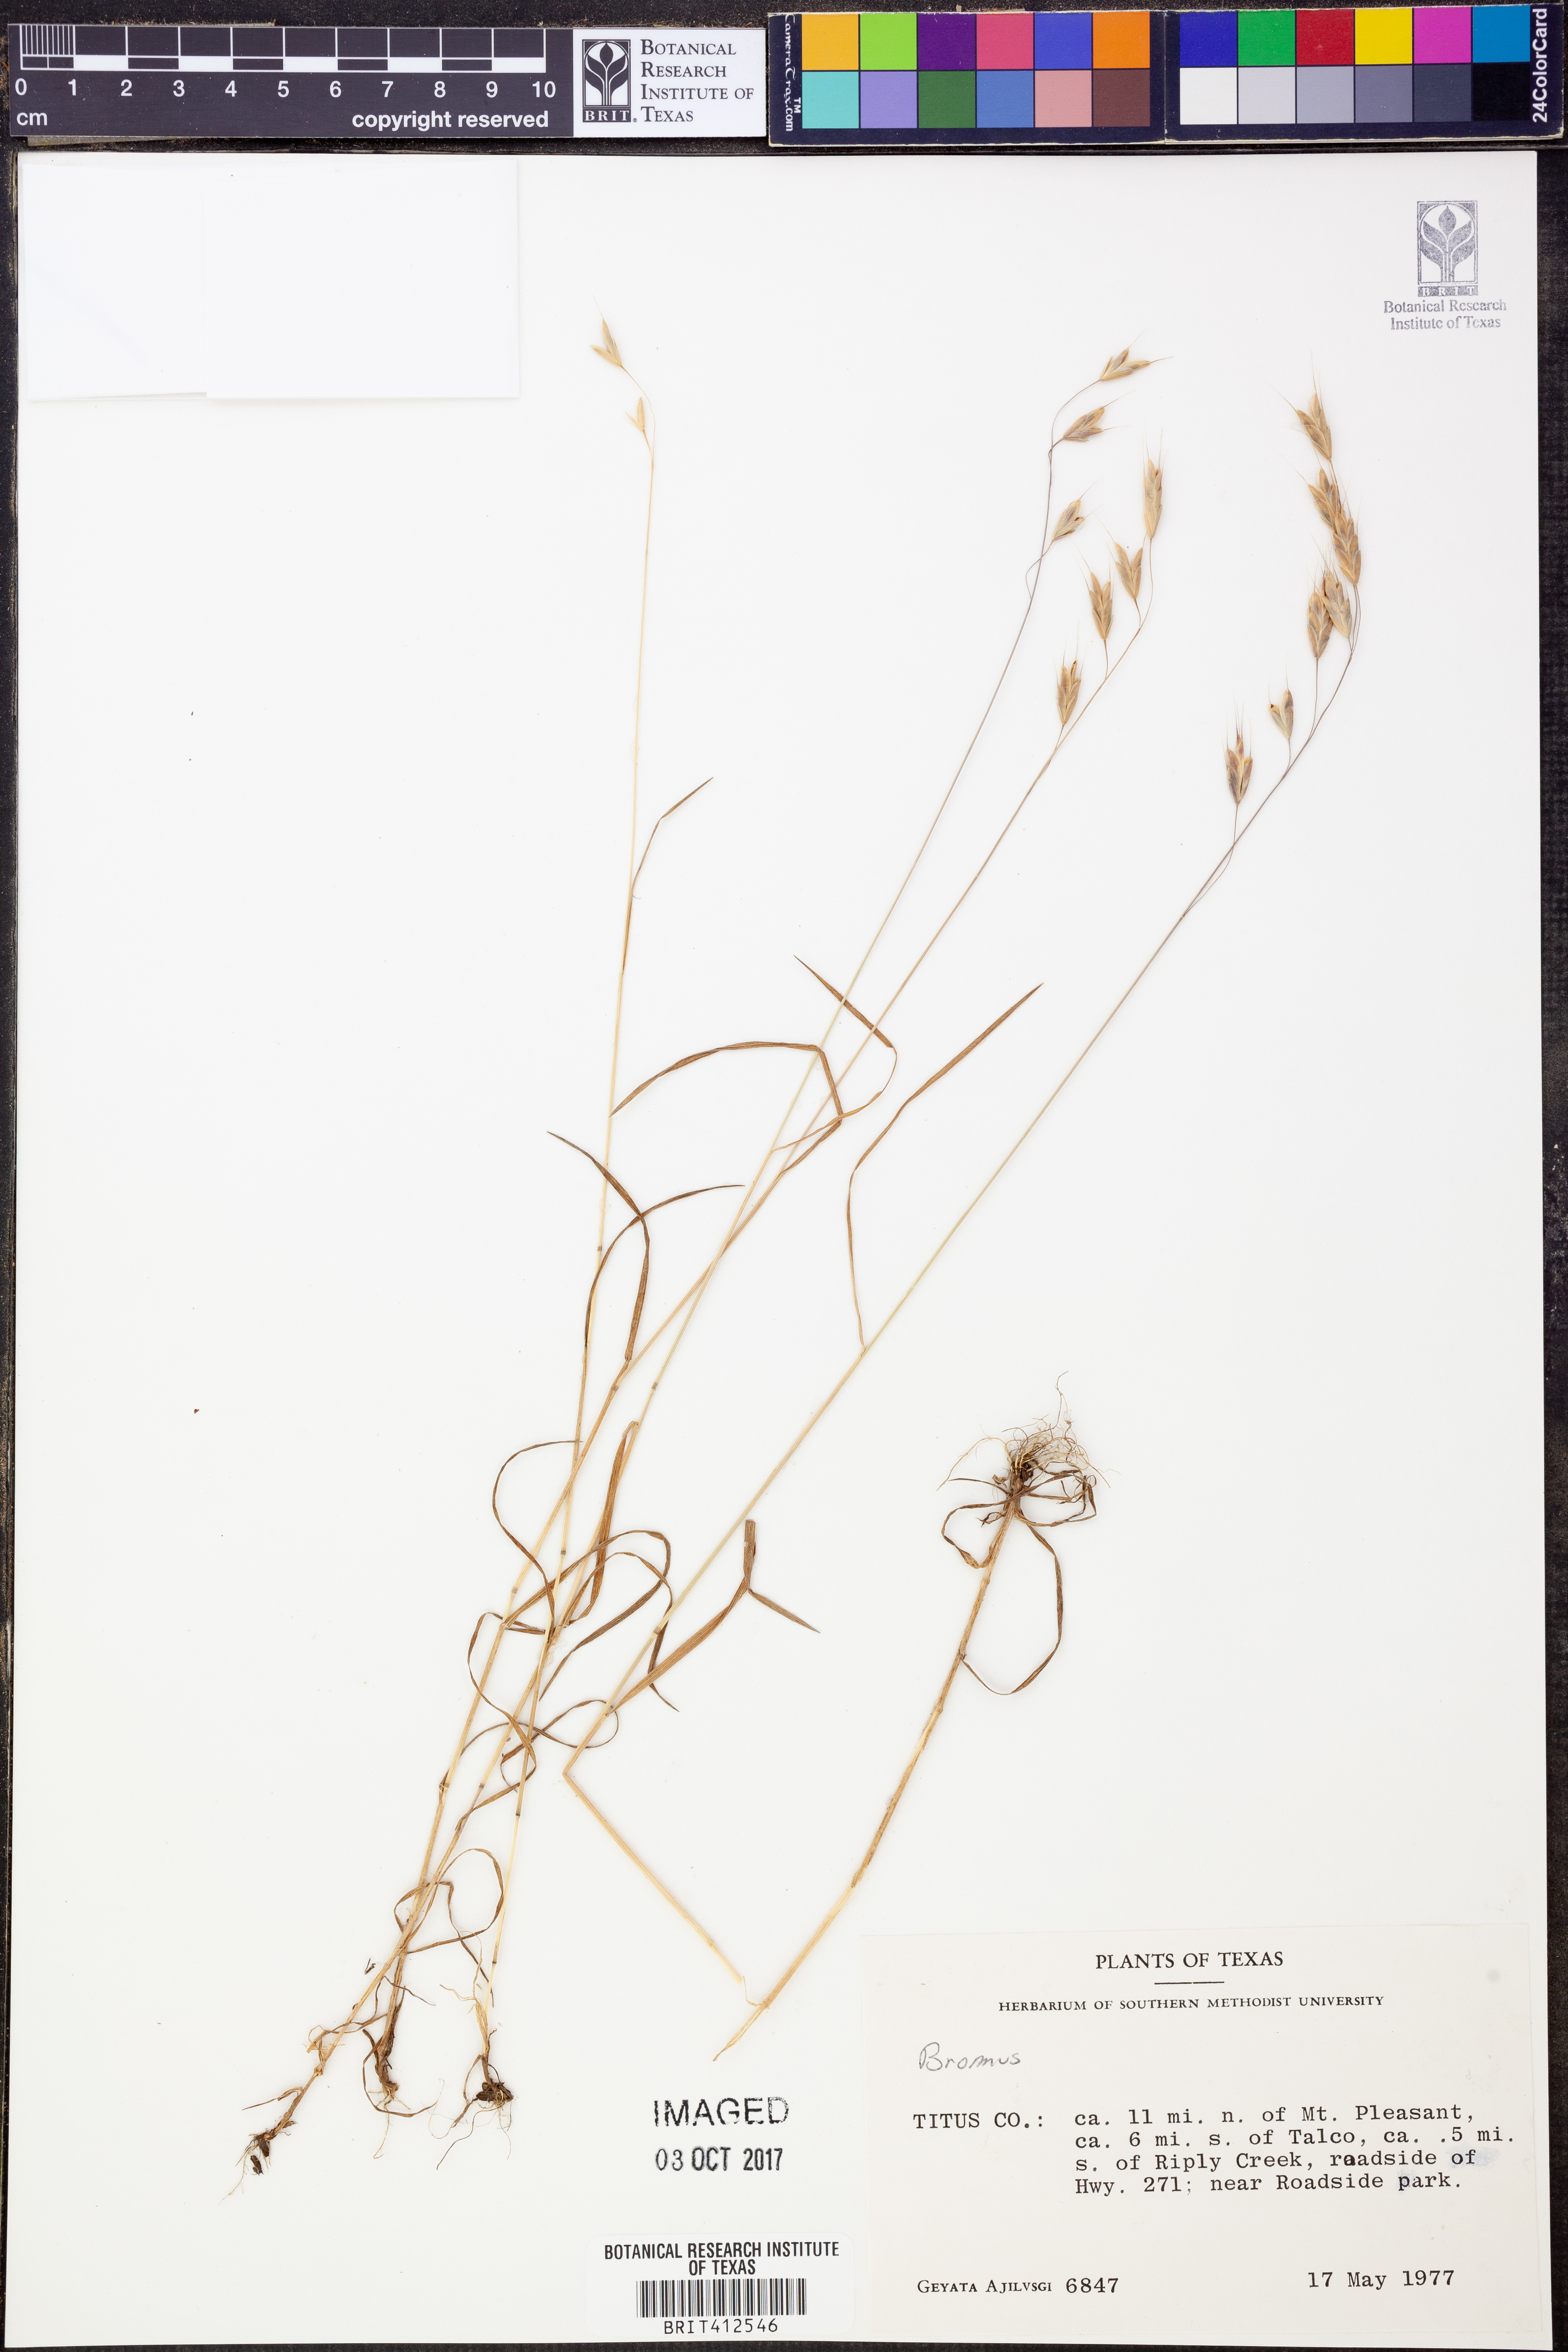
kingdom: Plantae
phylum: Tracheophyta
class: Liliopsida
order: Poales
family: Poaceae
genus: Bromus
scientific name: Bromus
